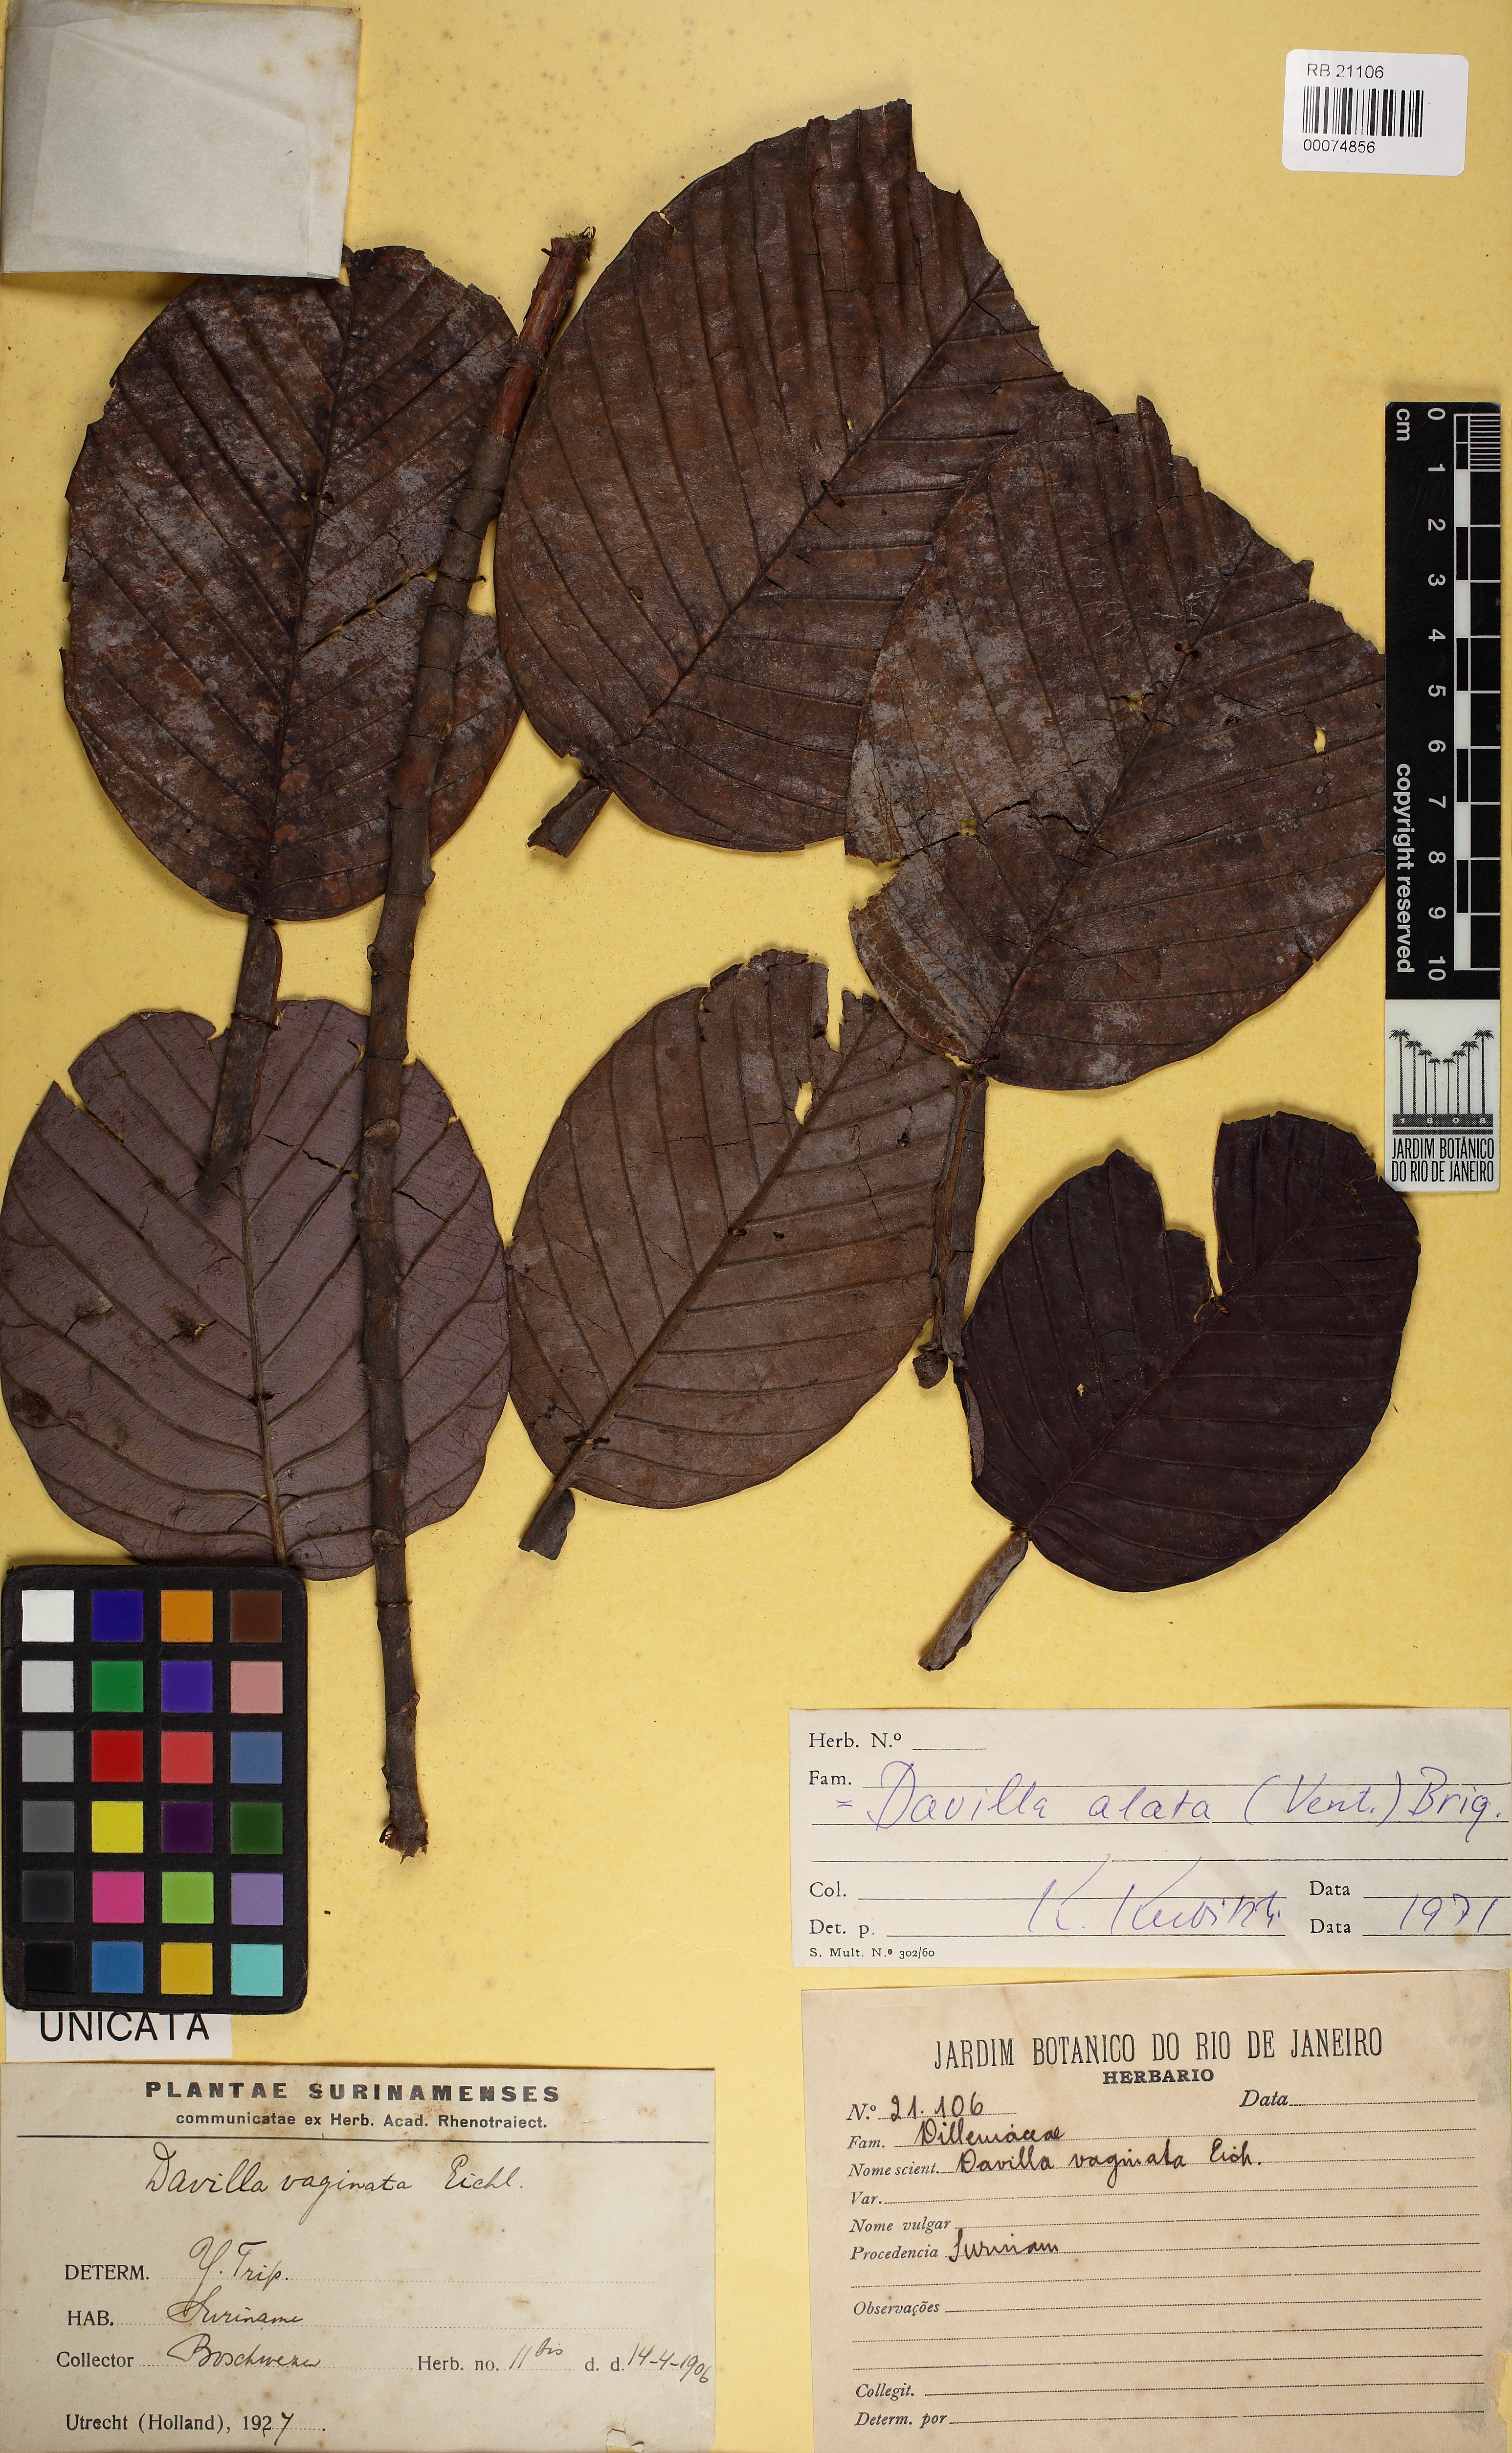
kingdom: Plantae
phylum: Tracheophyta
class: Magnoliopsida
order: Dilleniales
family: Dilleniaceae
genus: Davilla
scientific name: Davilla alata
